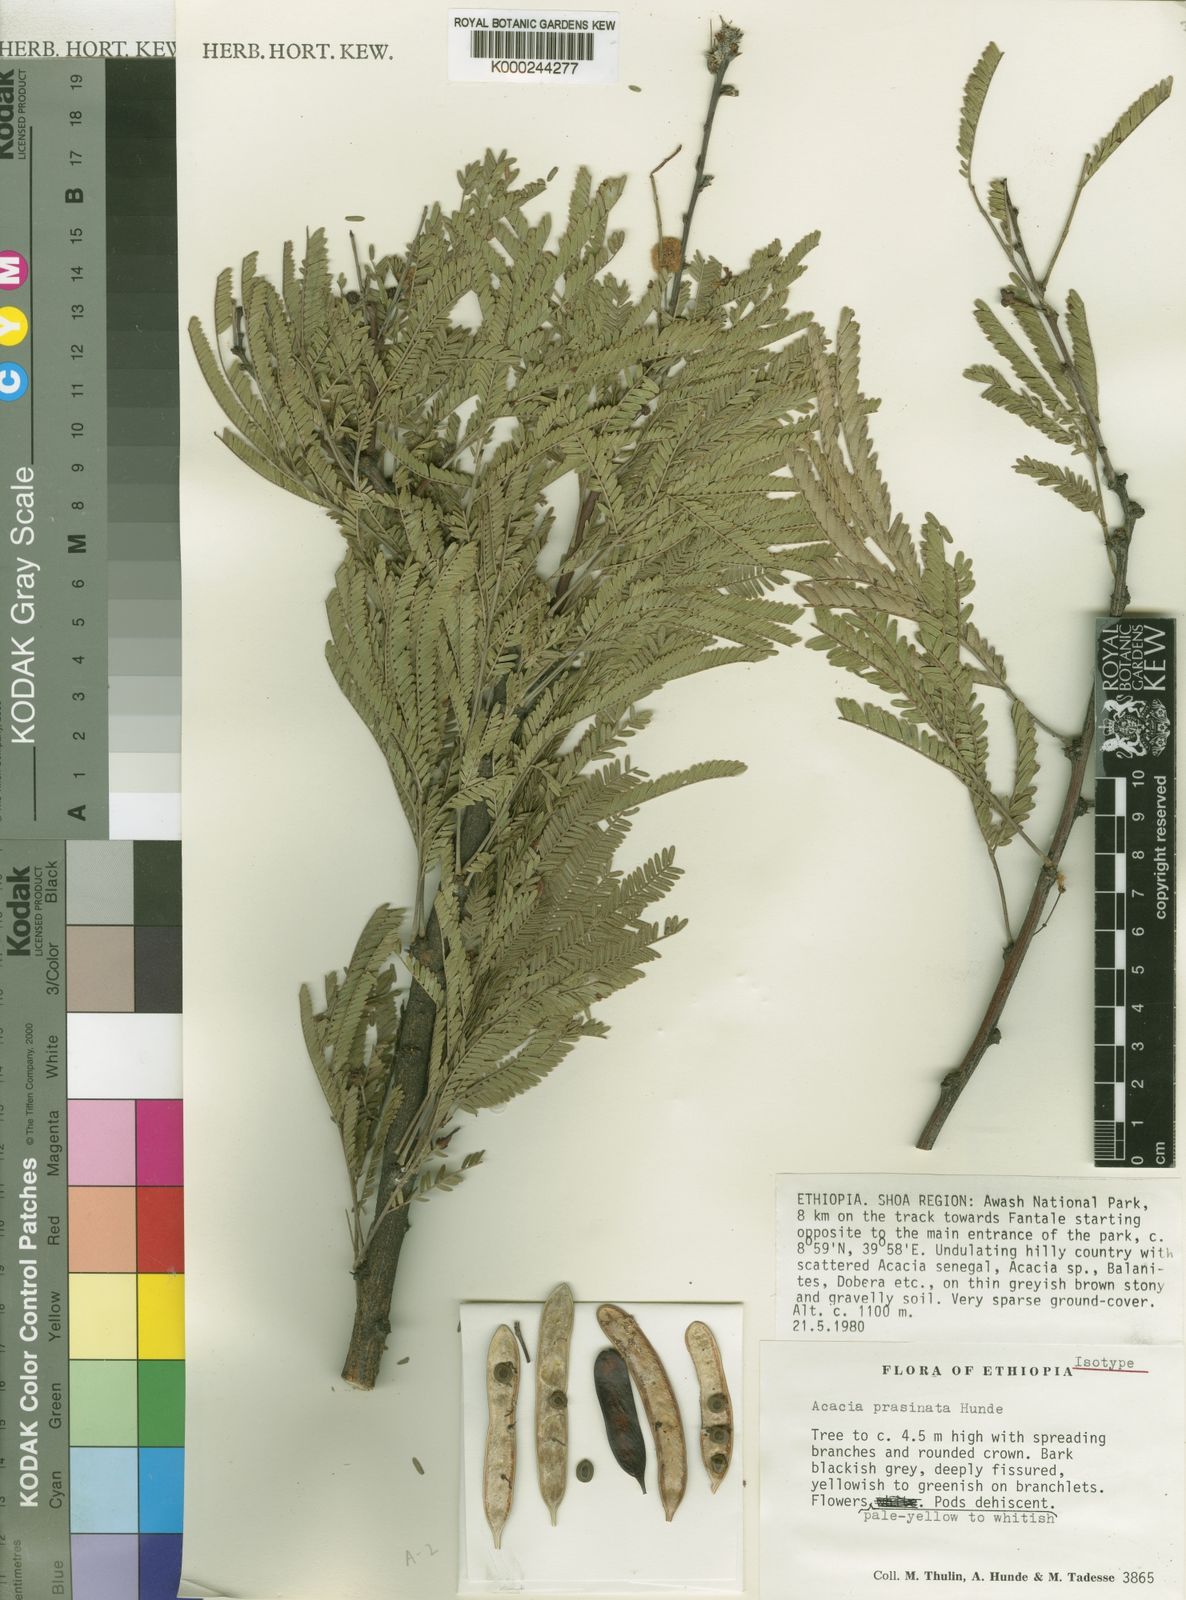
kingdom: Plantae
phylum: Tracheophyta
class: Magnoliopsida
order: Fabales
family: Fabaceae
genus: Vachellia
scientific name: Vachellia prasinata
